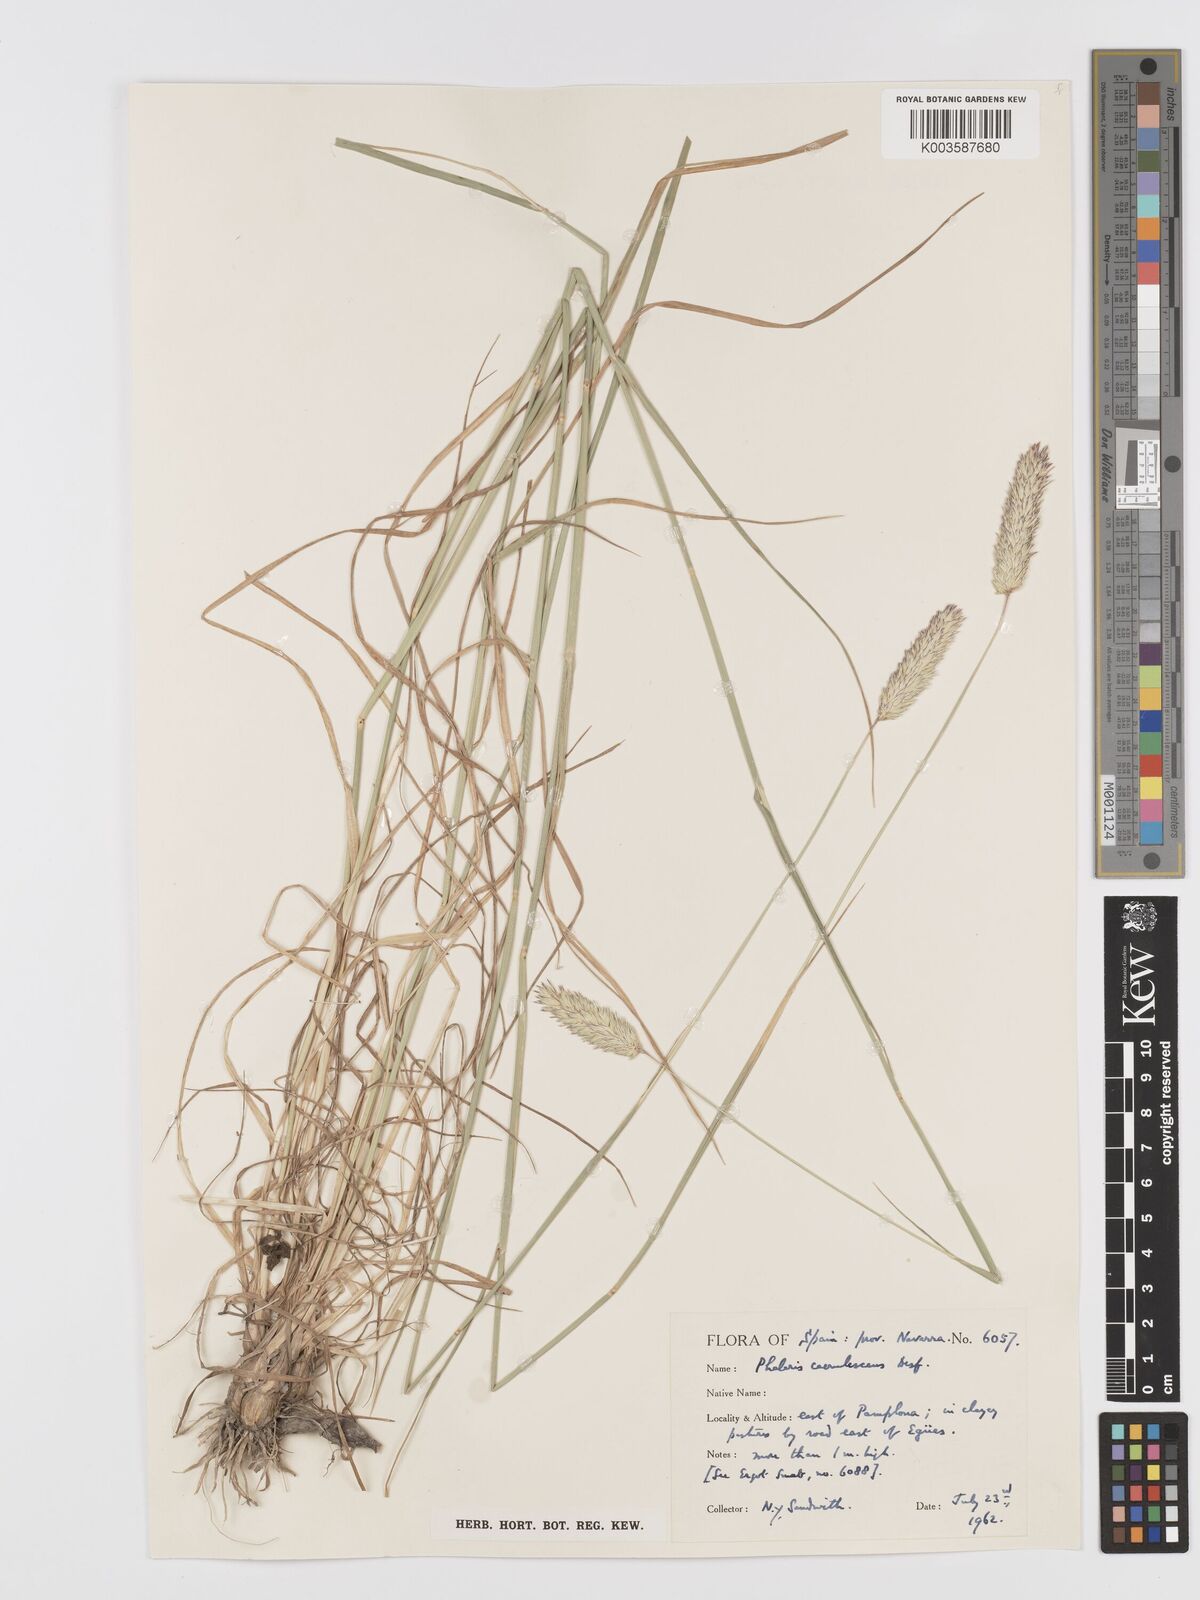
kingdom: Plantae
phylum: Tracheophyta
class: Liliopsida
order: Poales
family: Poaceae
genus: Phalaris
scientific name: Phalaris coerulescens
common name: Sunolgrass
